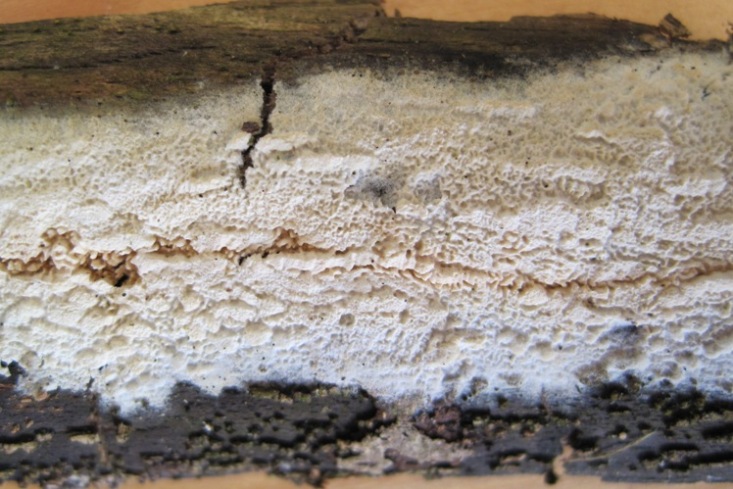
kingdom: Fungi
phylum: Basidiomycota
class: Agaricomycetes
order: Hymenochaetales
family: Schizoporaceae
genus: Schizopora
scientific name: Schizopora paradoxa
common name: hvid tandsvamp
